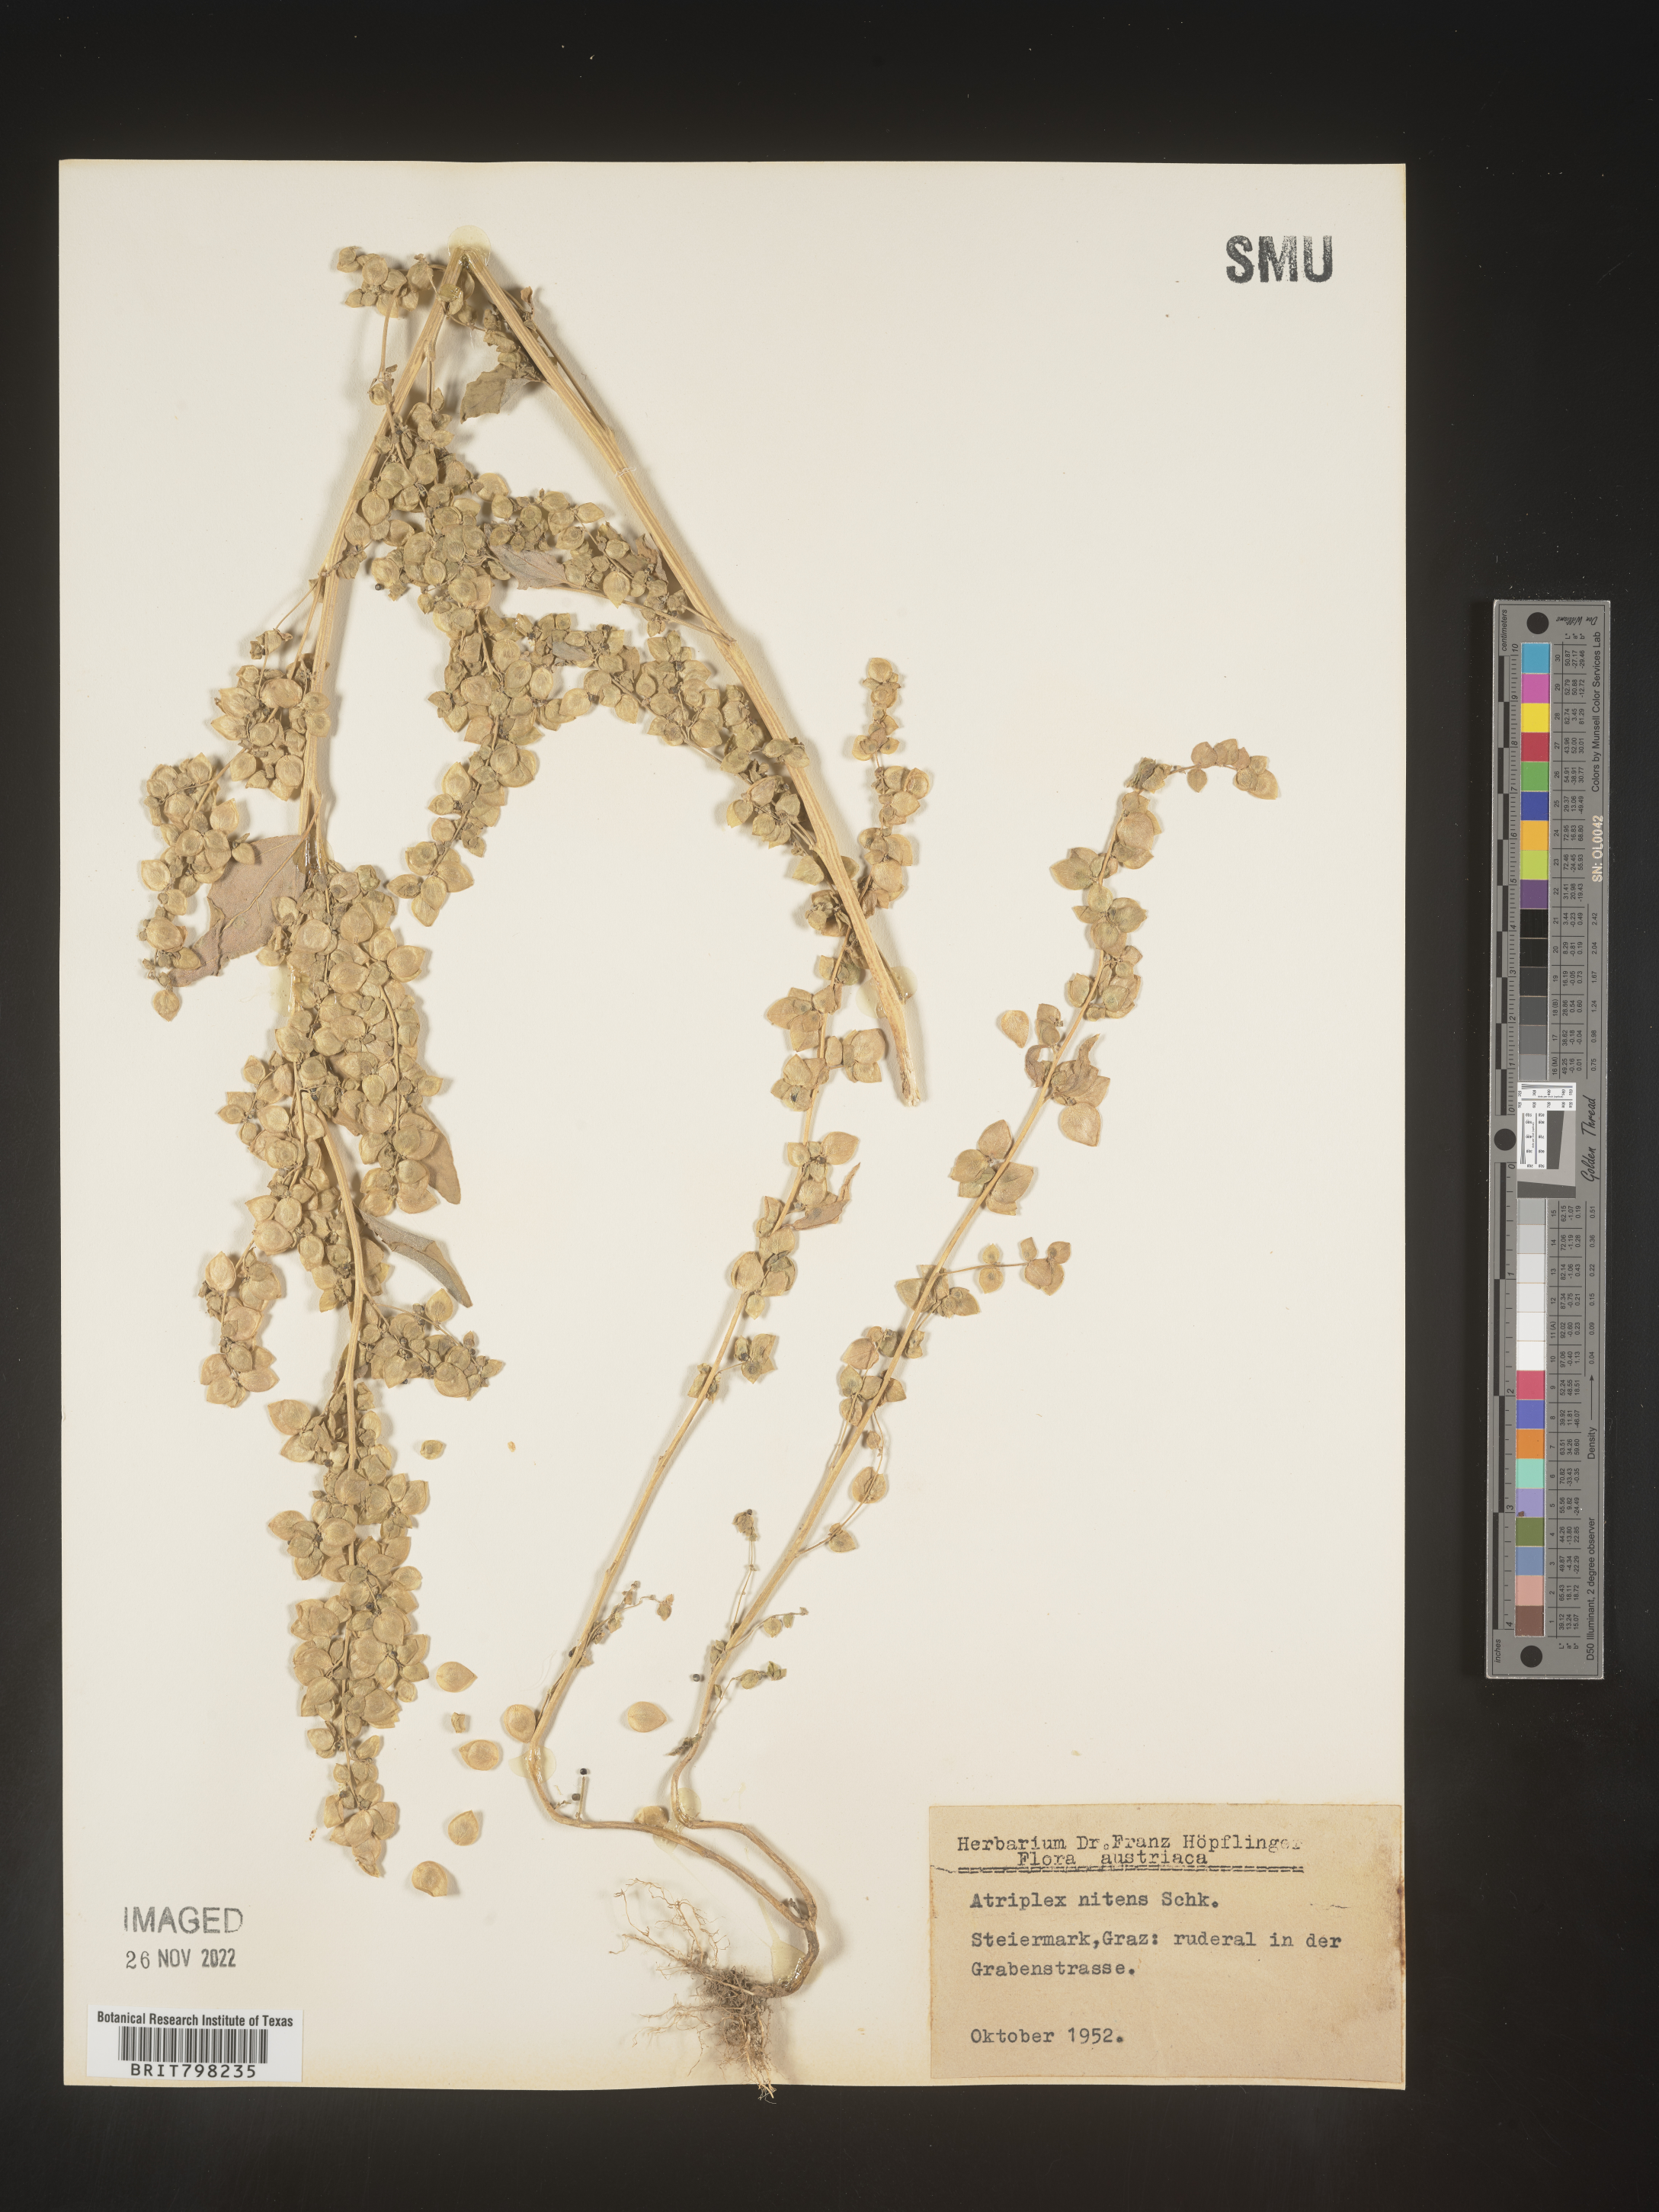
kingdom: Plantae
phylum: Tracheophyta
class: Magnoliopsida
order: Caryophyllales
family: Amaranthaceae
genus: Atriplex
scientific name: Atriplex
